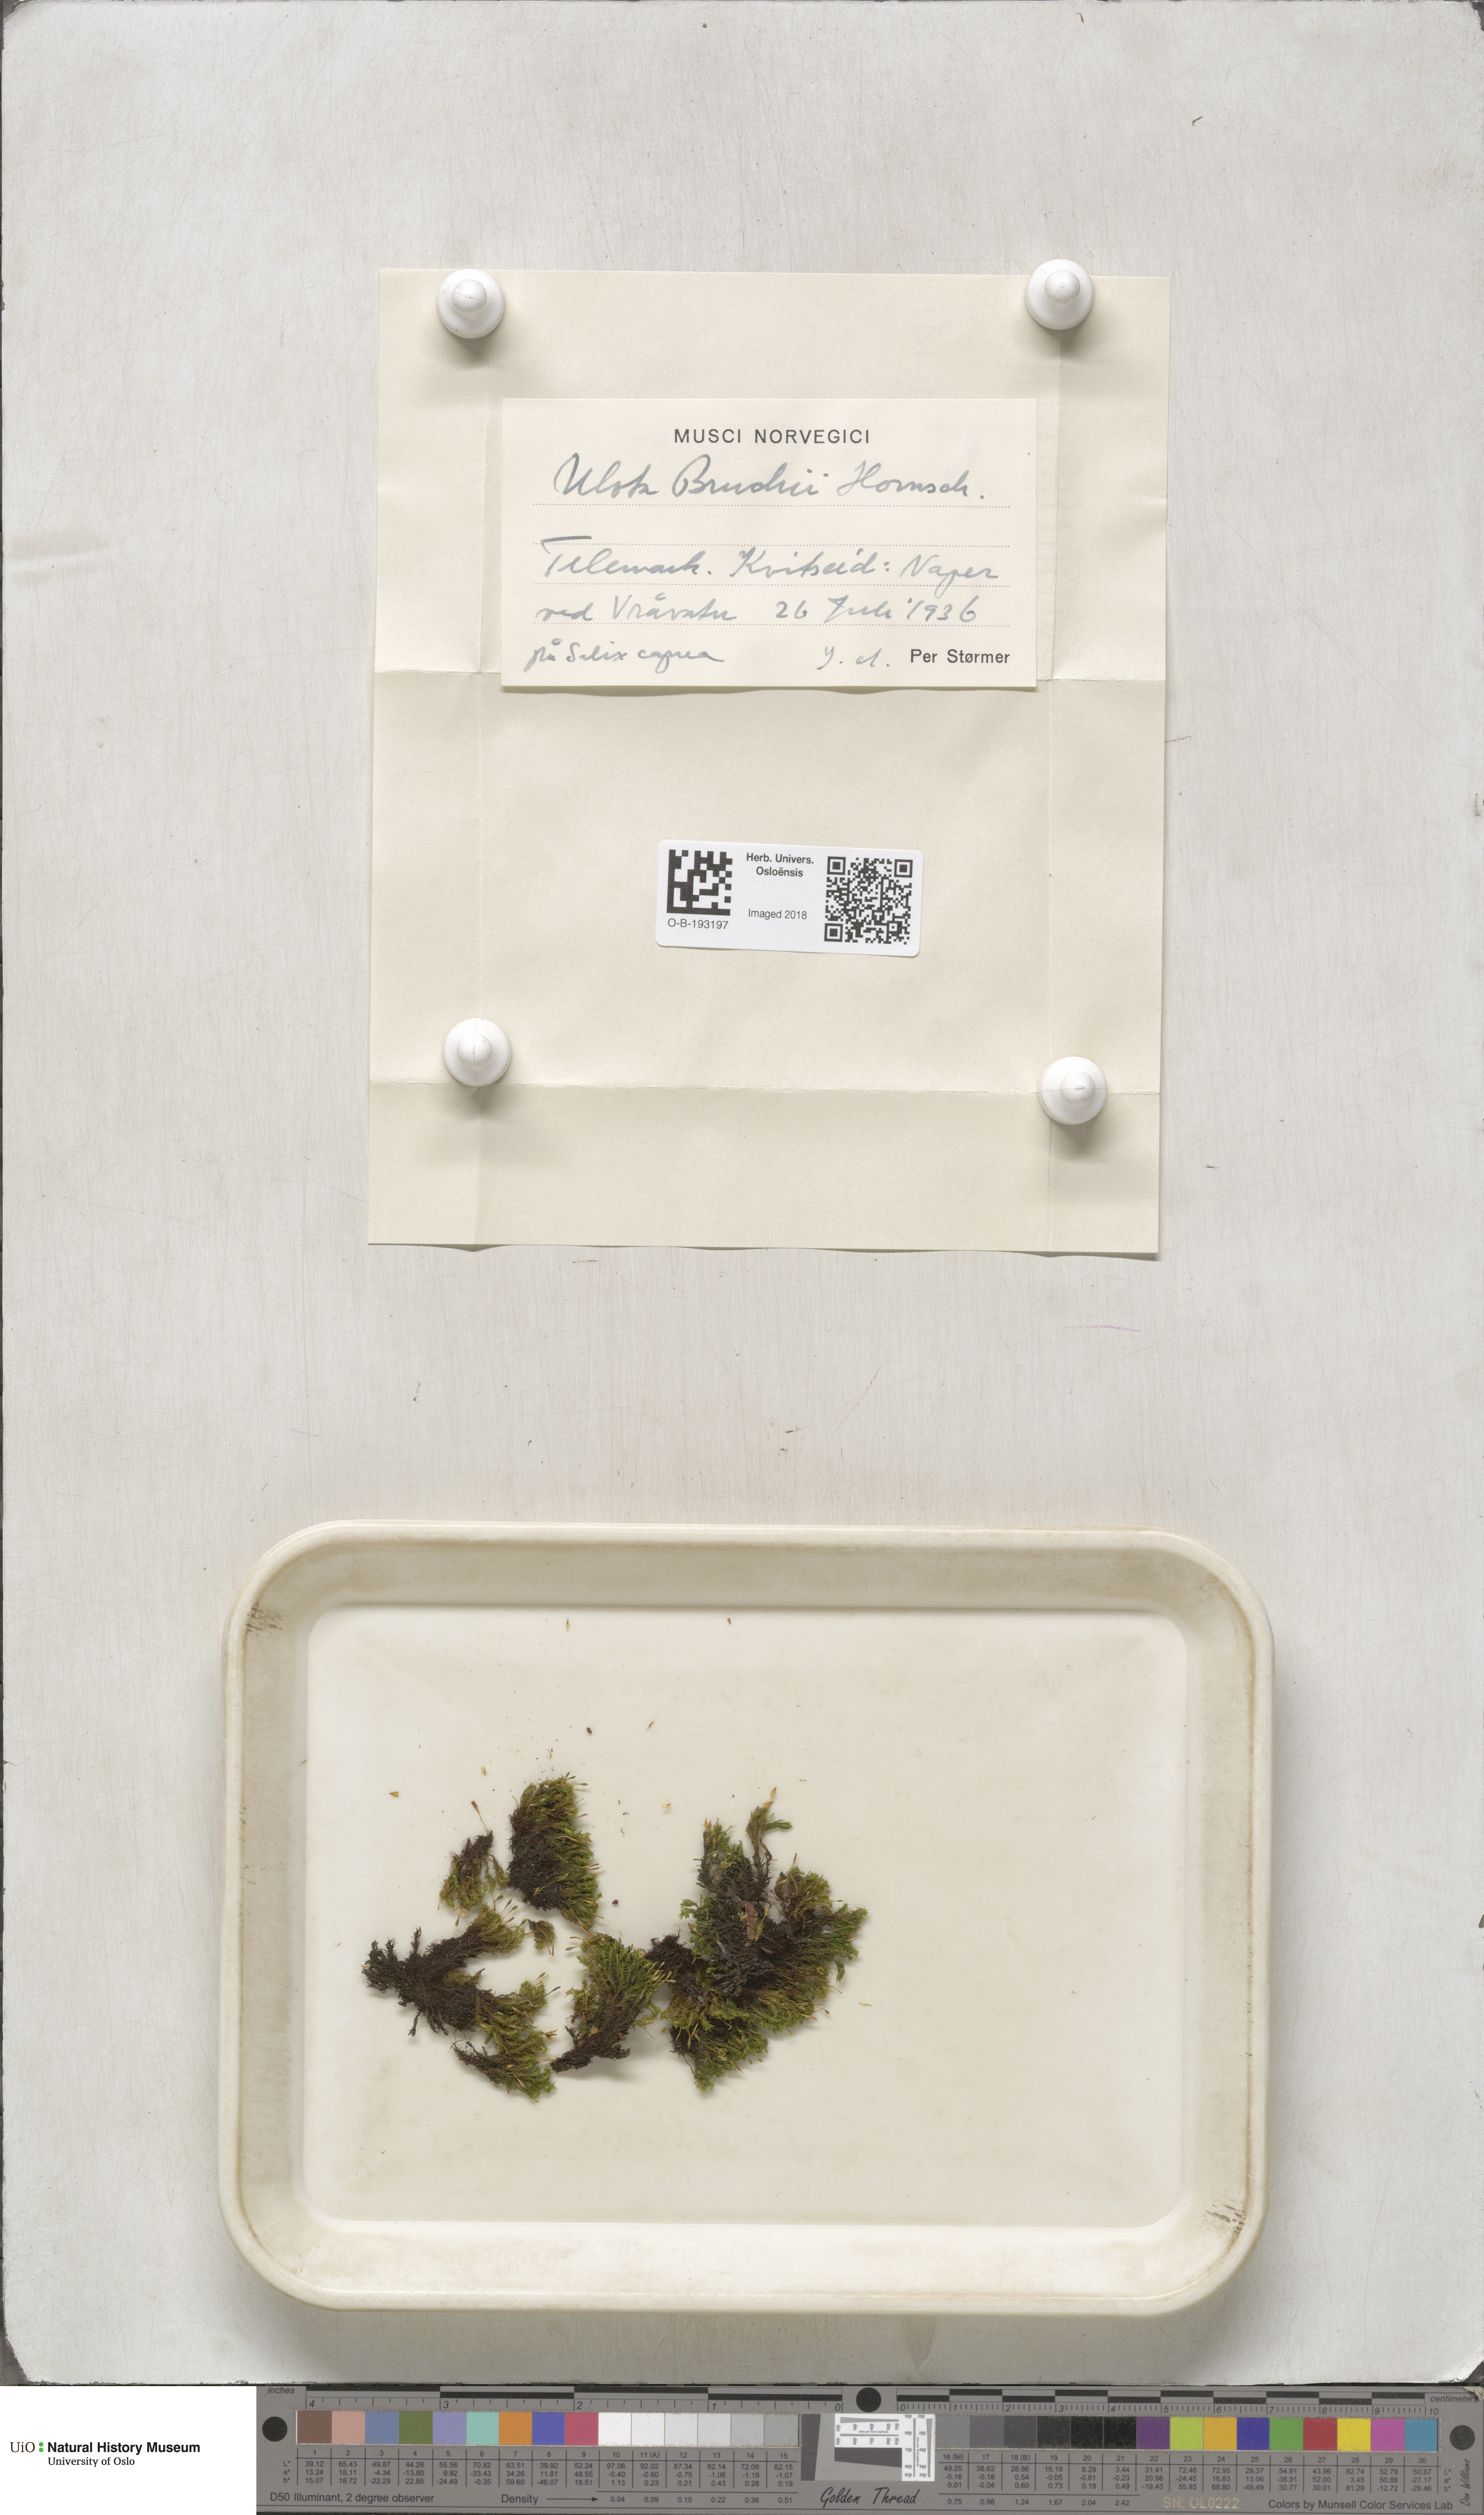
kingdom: Plantae
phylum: Bryophyta
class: Bryopsida
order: Orthotrichales
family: Orthotrichaceae
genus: Ulota
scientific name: Ulota bruchii
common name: Bruch's pincushion
